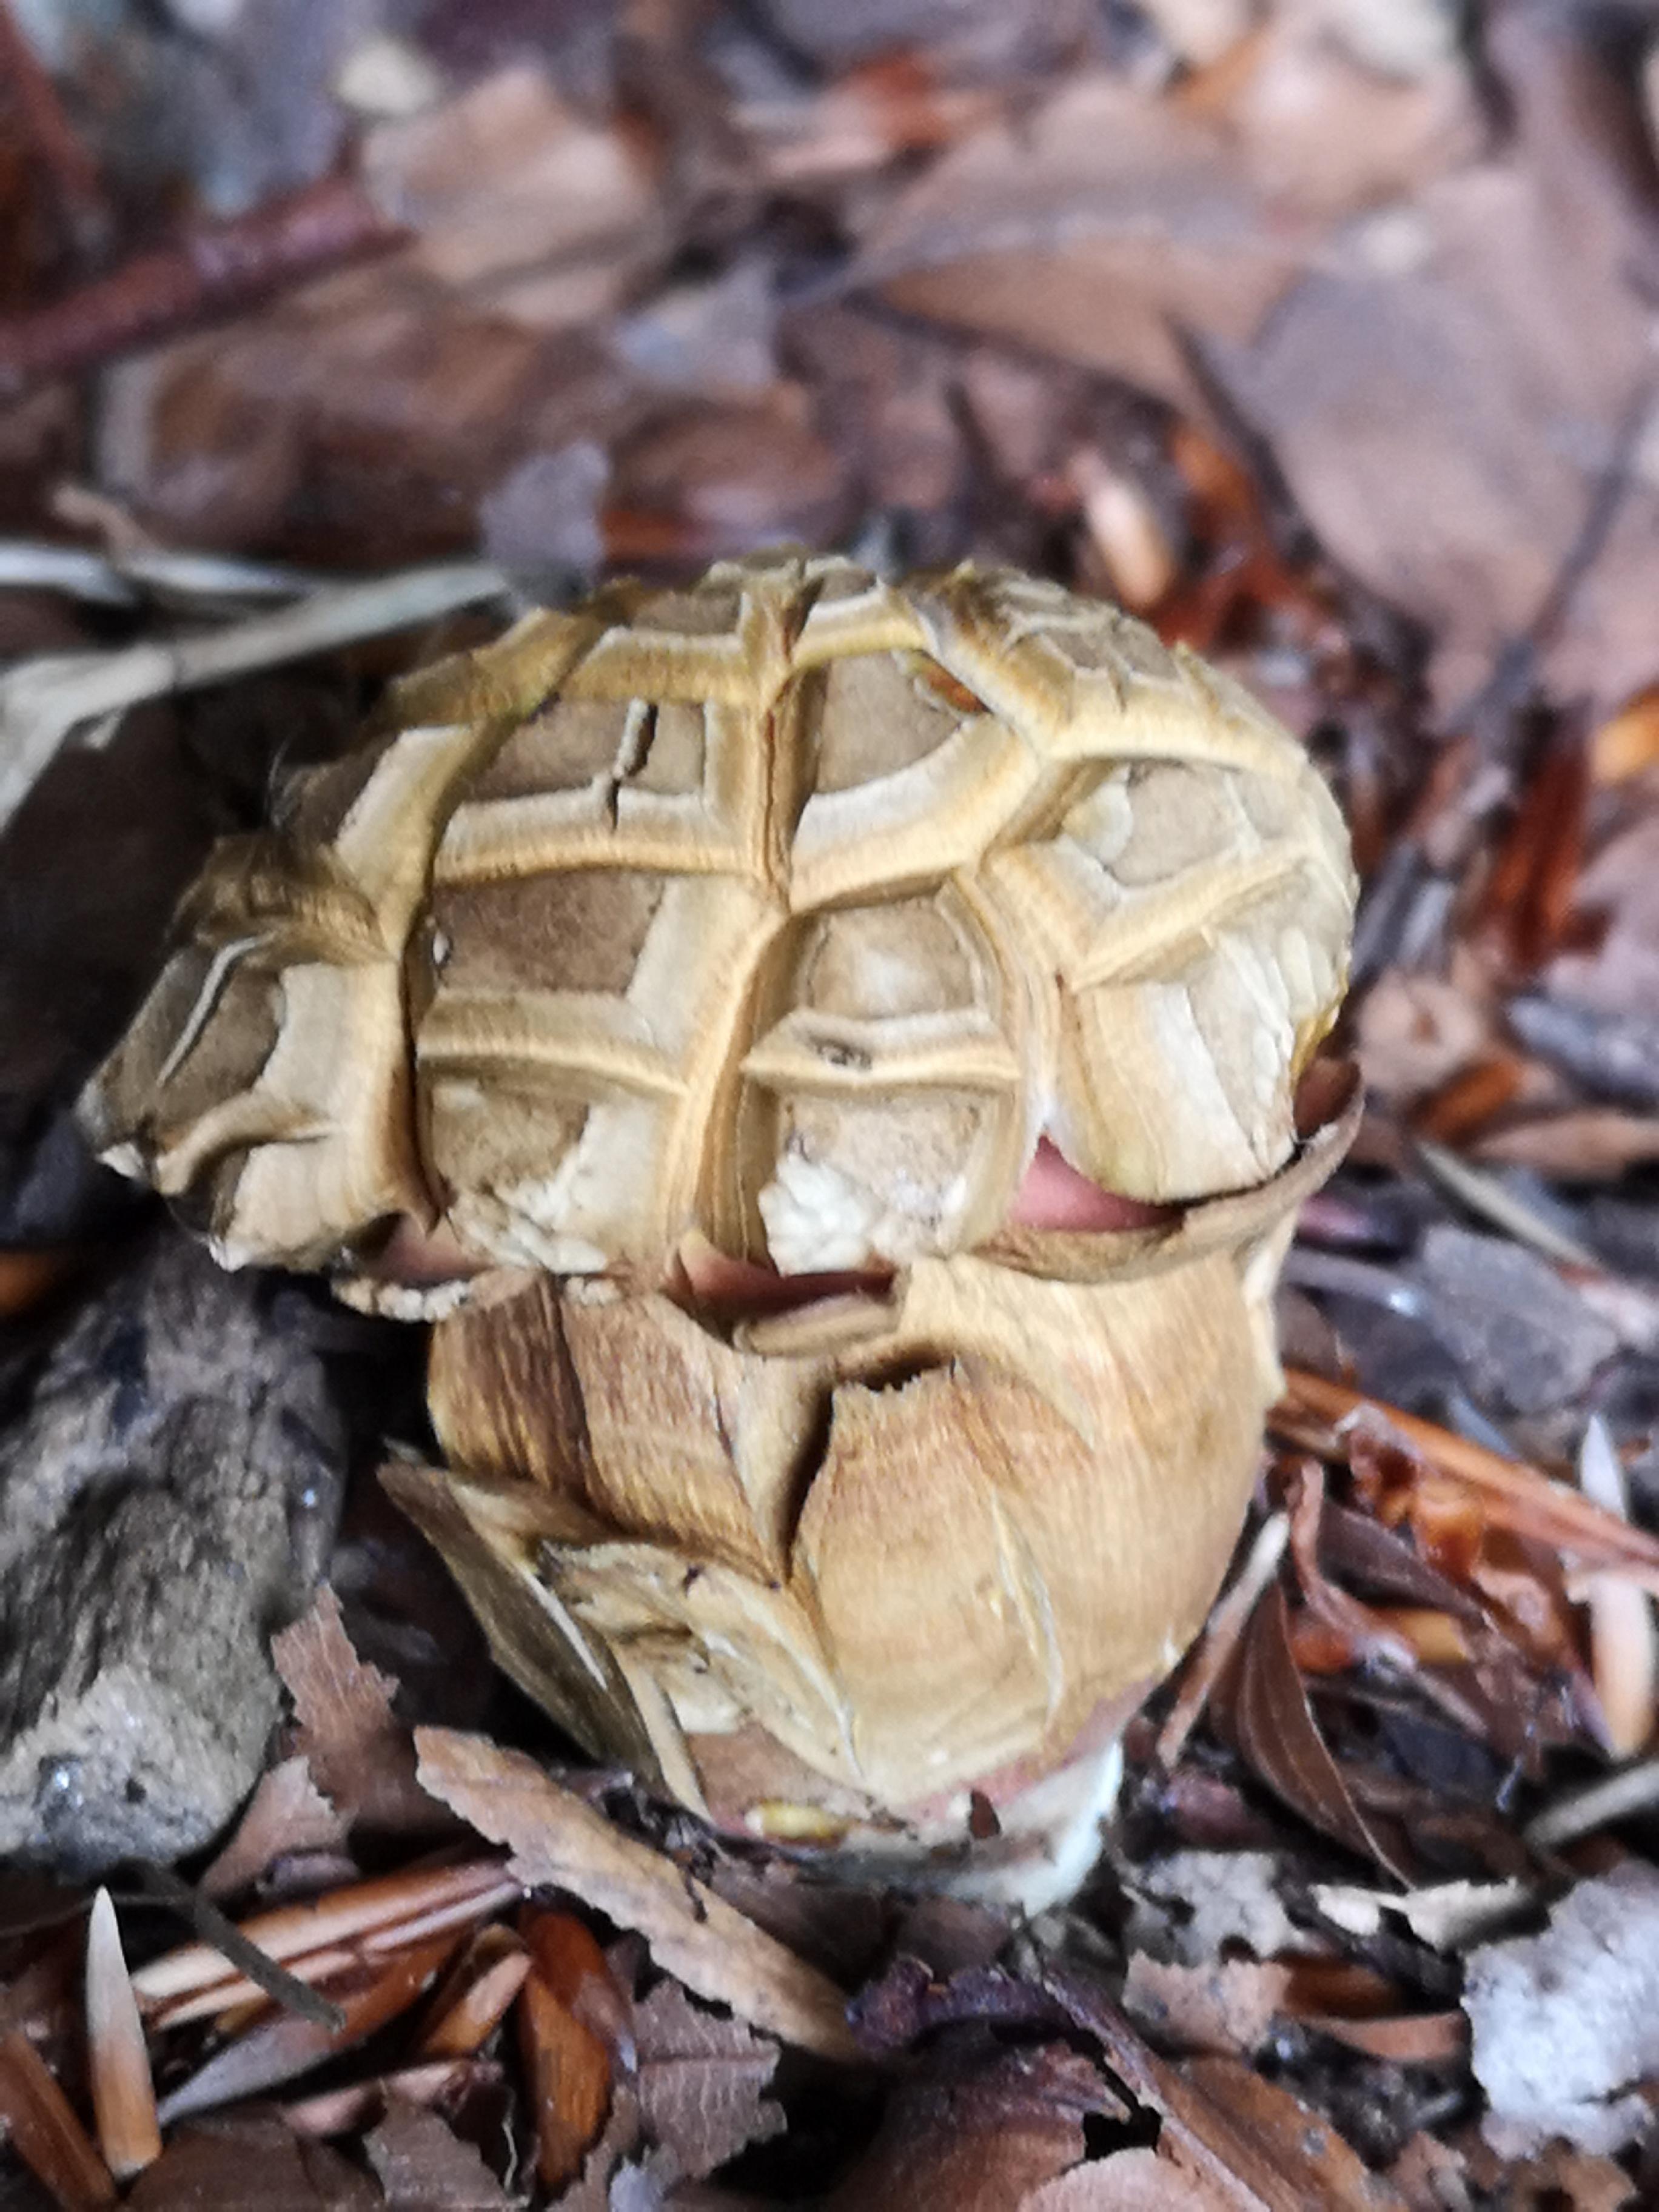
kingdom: Fungi
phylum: Basidiomycota
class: Agaricomycetes
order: Boletales
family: Boletaceae
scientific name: Boletaceae
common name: rørhatfamilien
